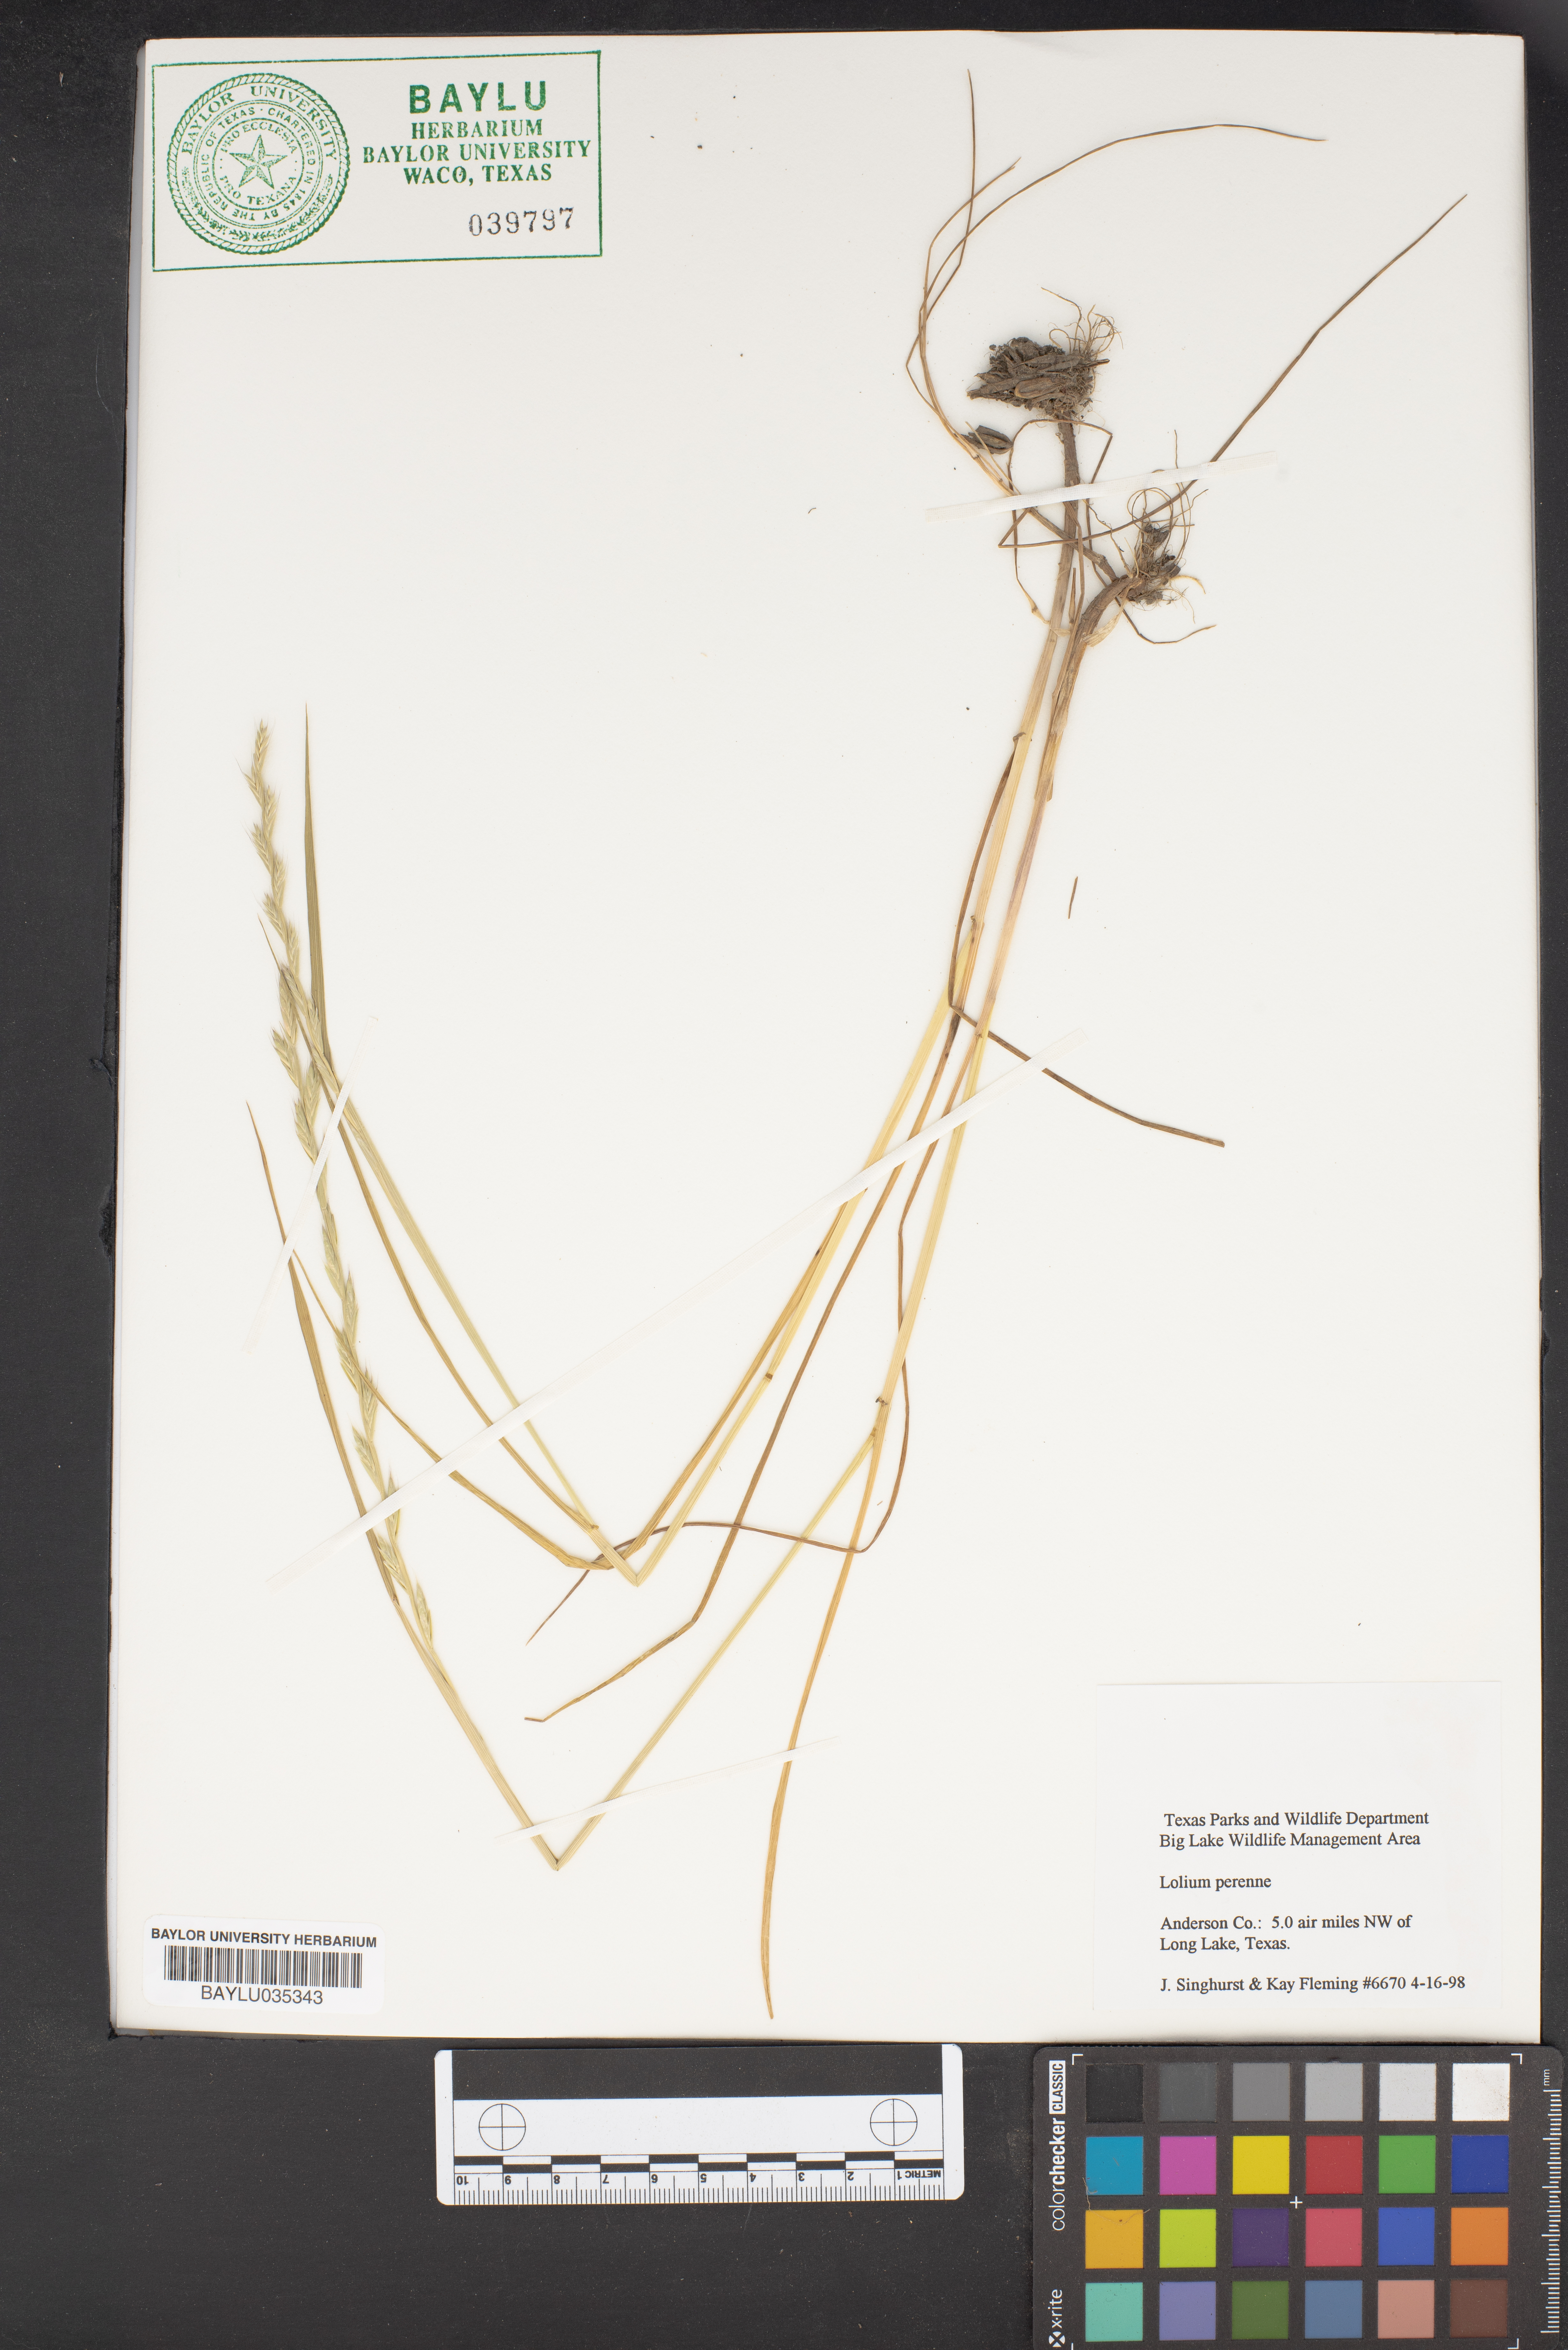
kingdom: Plantae
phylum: Tracheophyta
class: Liliopsida
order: Poales
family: Poaceae
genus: Lolium
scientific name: Lolium perenne
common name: Perennial ryegrass
